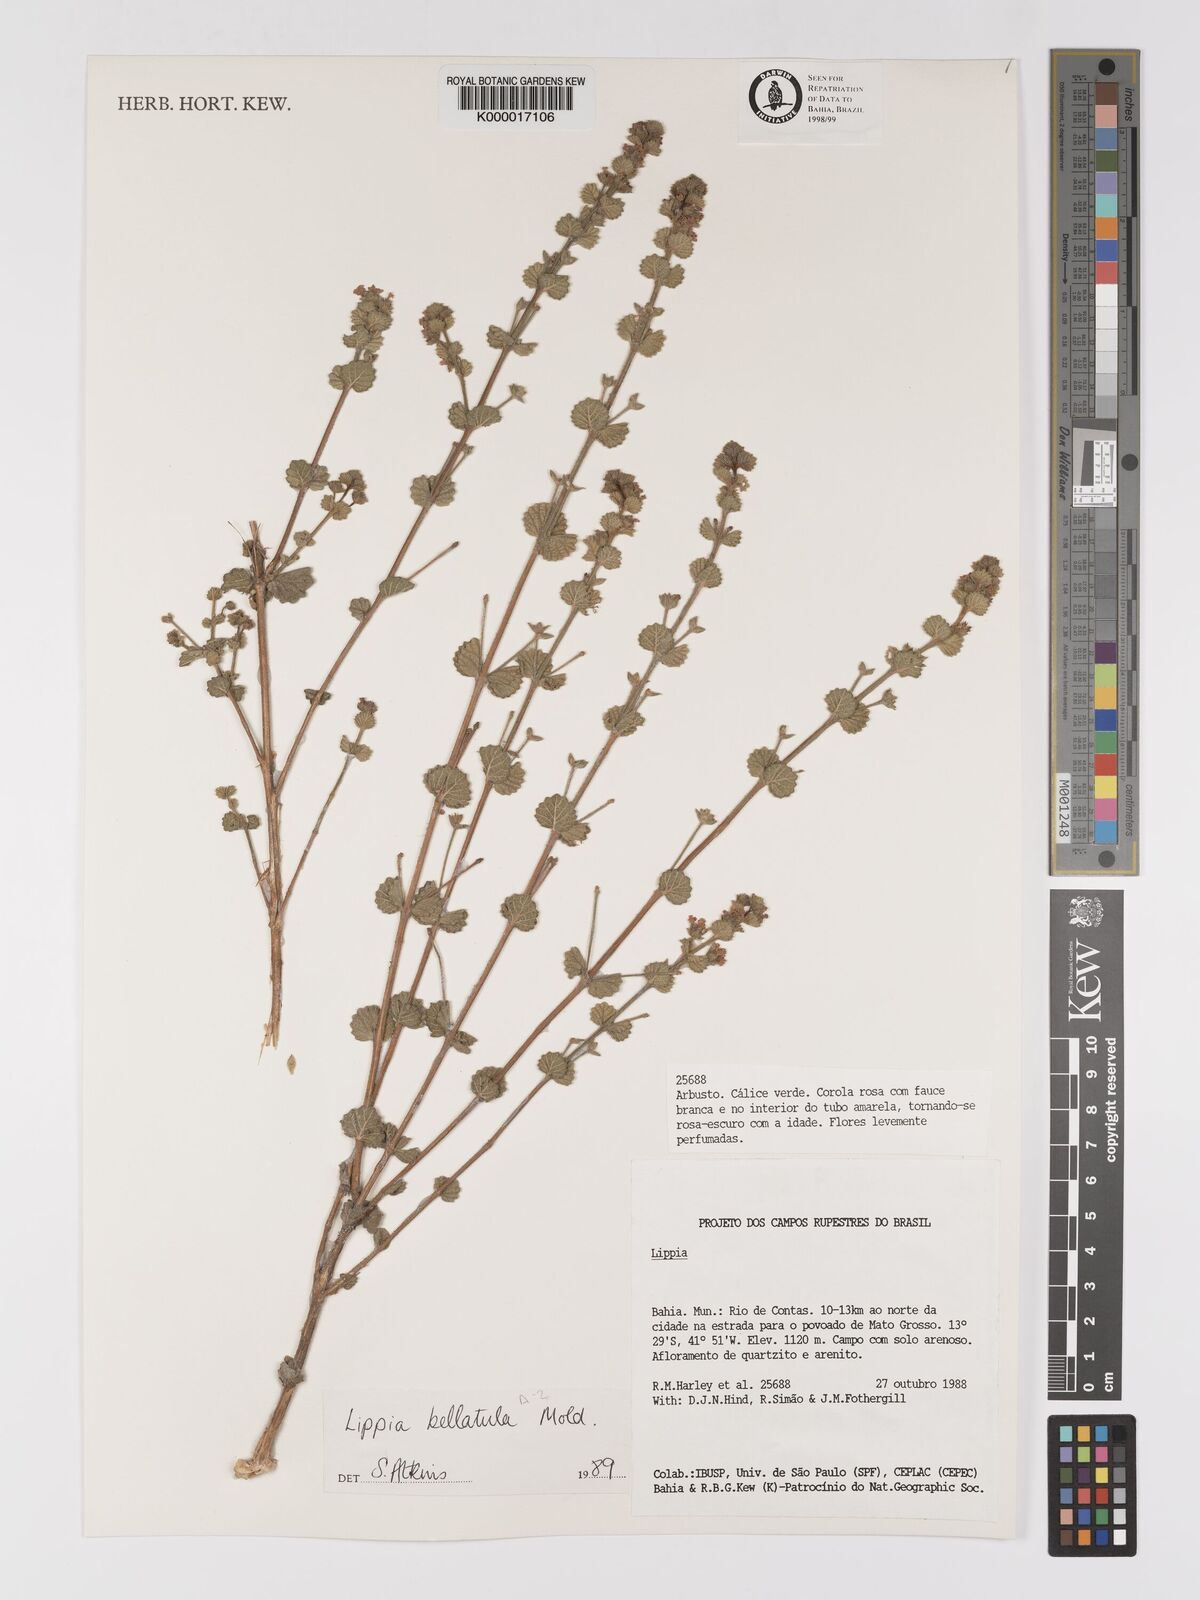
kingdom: Plantae
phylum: Tracheophyta
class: Magnoliopsida
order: Lamiales
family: Verbenaceae
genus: Lippia
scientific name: Lippia bellatula
